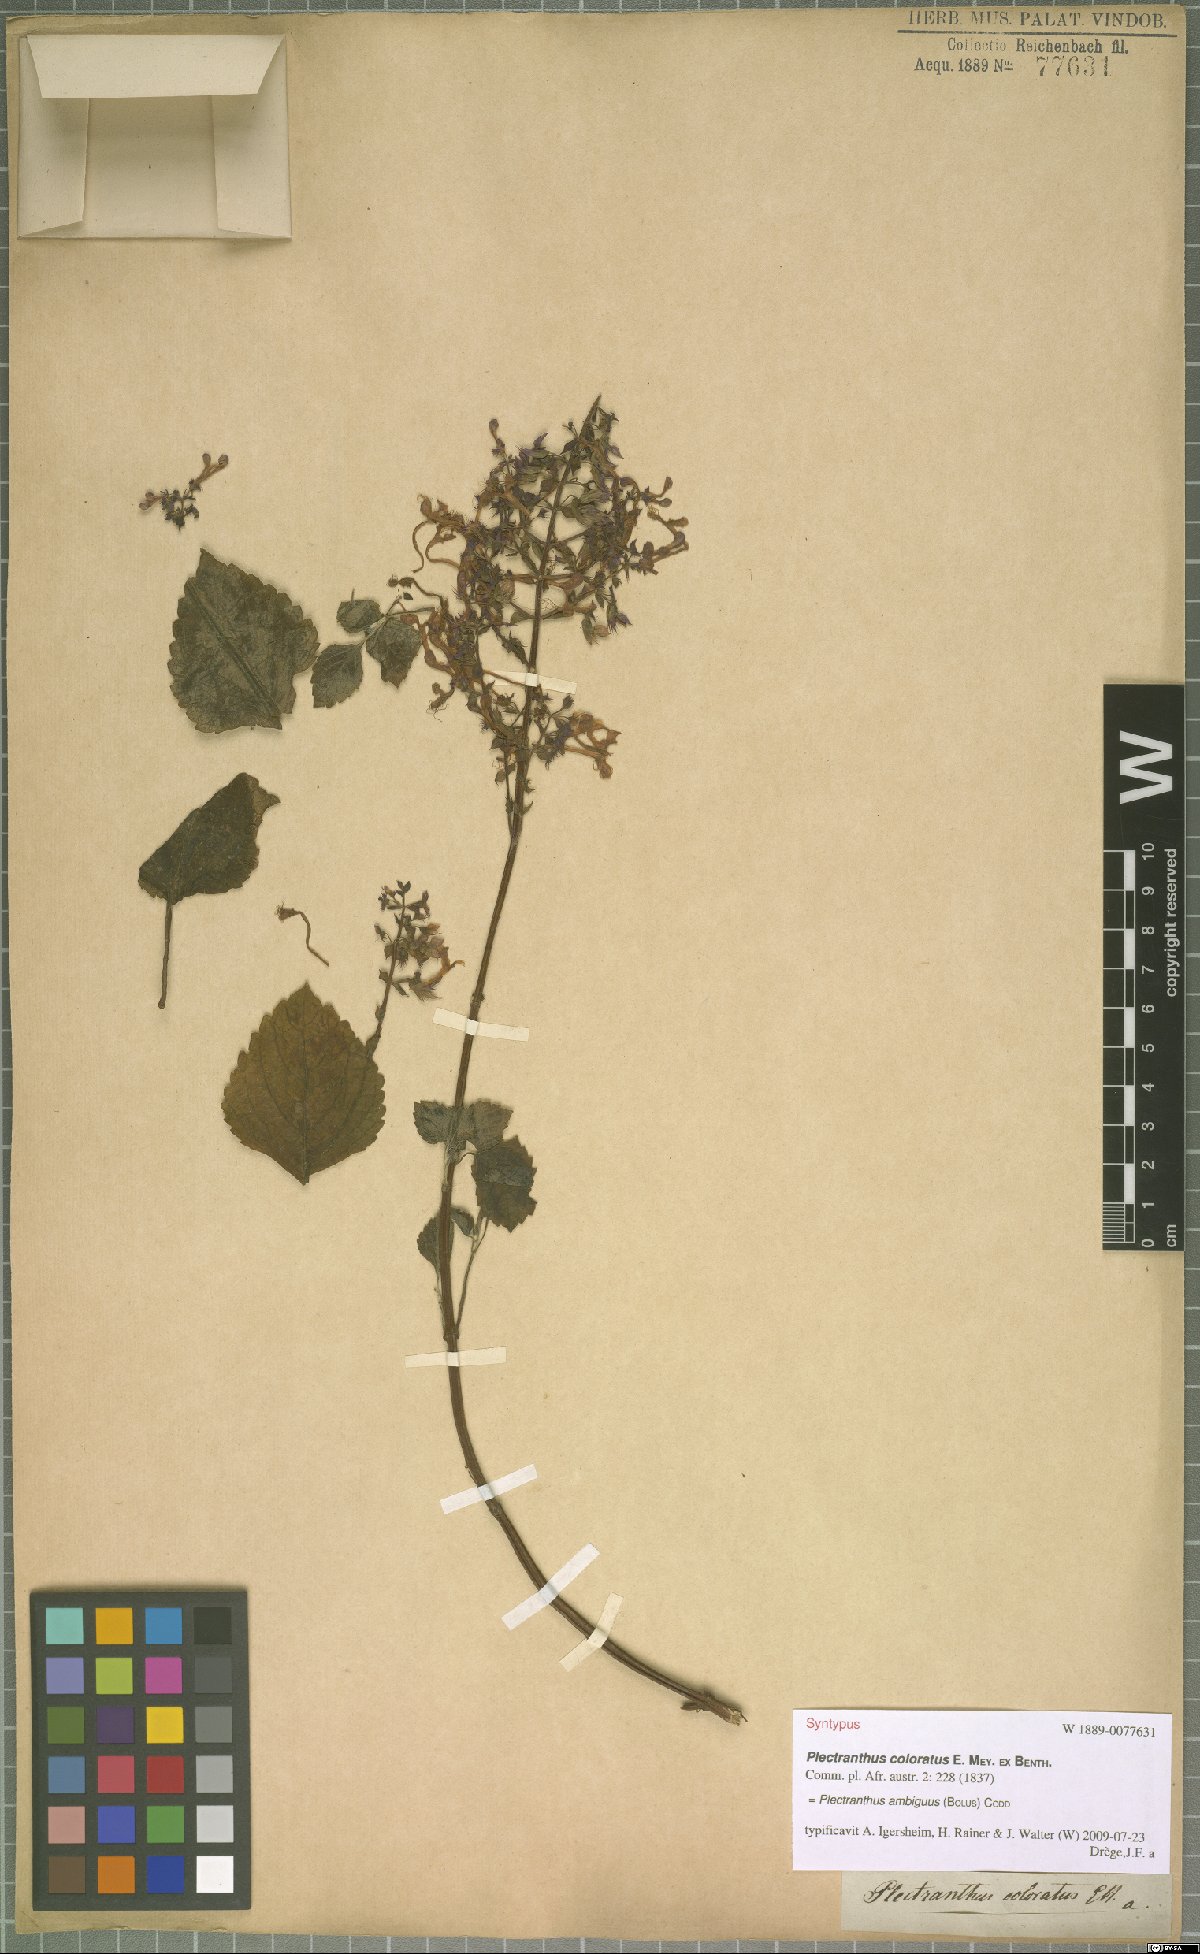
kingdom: Plantae
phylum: Tracheophyta
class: Magnoliopsida
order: Lamiales
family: Lamiaceae
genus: Plectranthus
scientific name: Plectranthus ambiguus
